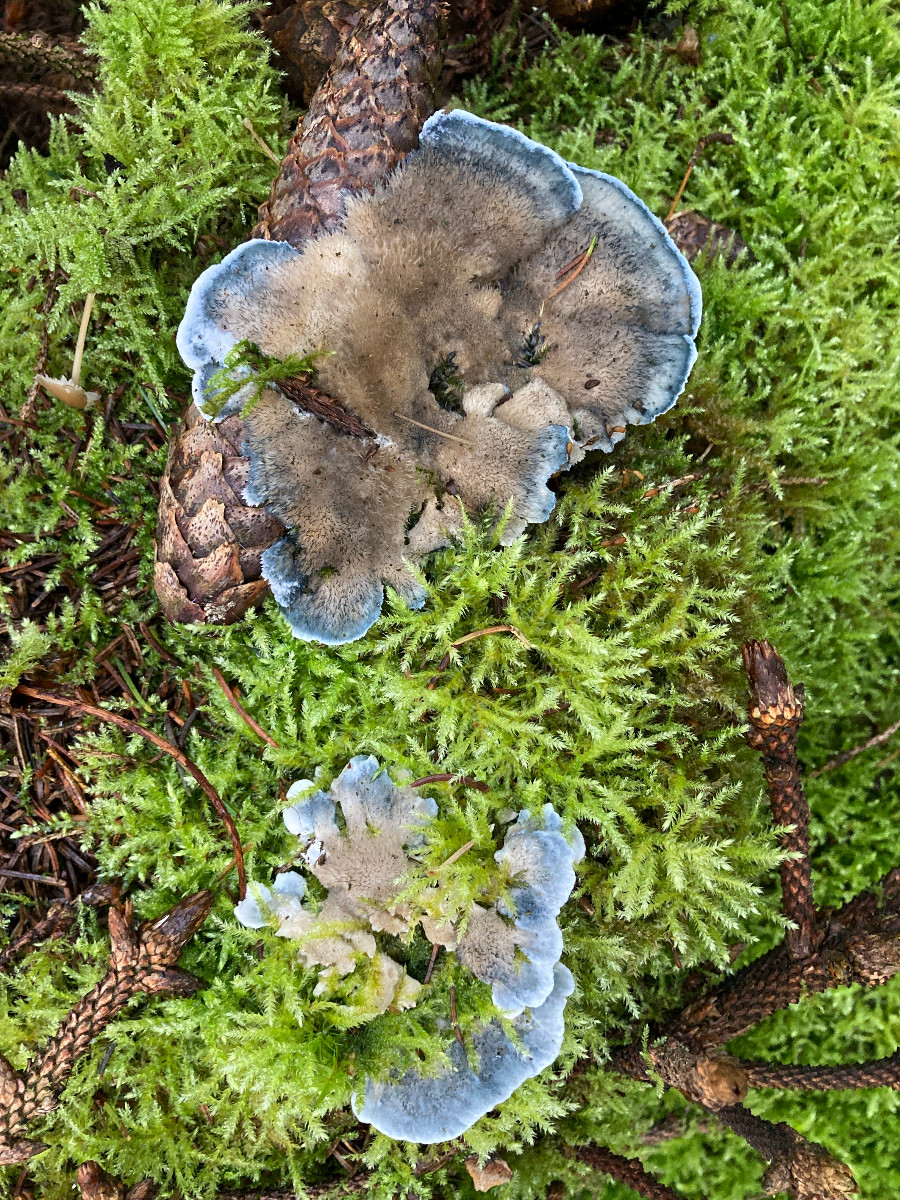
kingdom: Fungi
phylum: Basidiomycota
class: Agaricomycetes
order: Polyporales
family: Polyporaceae
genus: Cyanosporus
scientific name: Cyanosporus caesius
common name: blålig kødporesvamp
